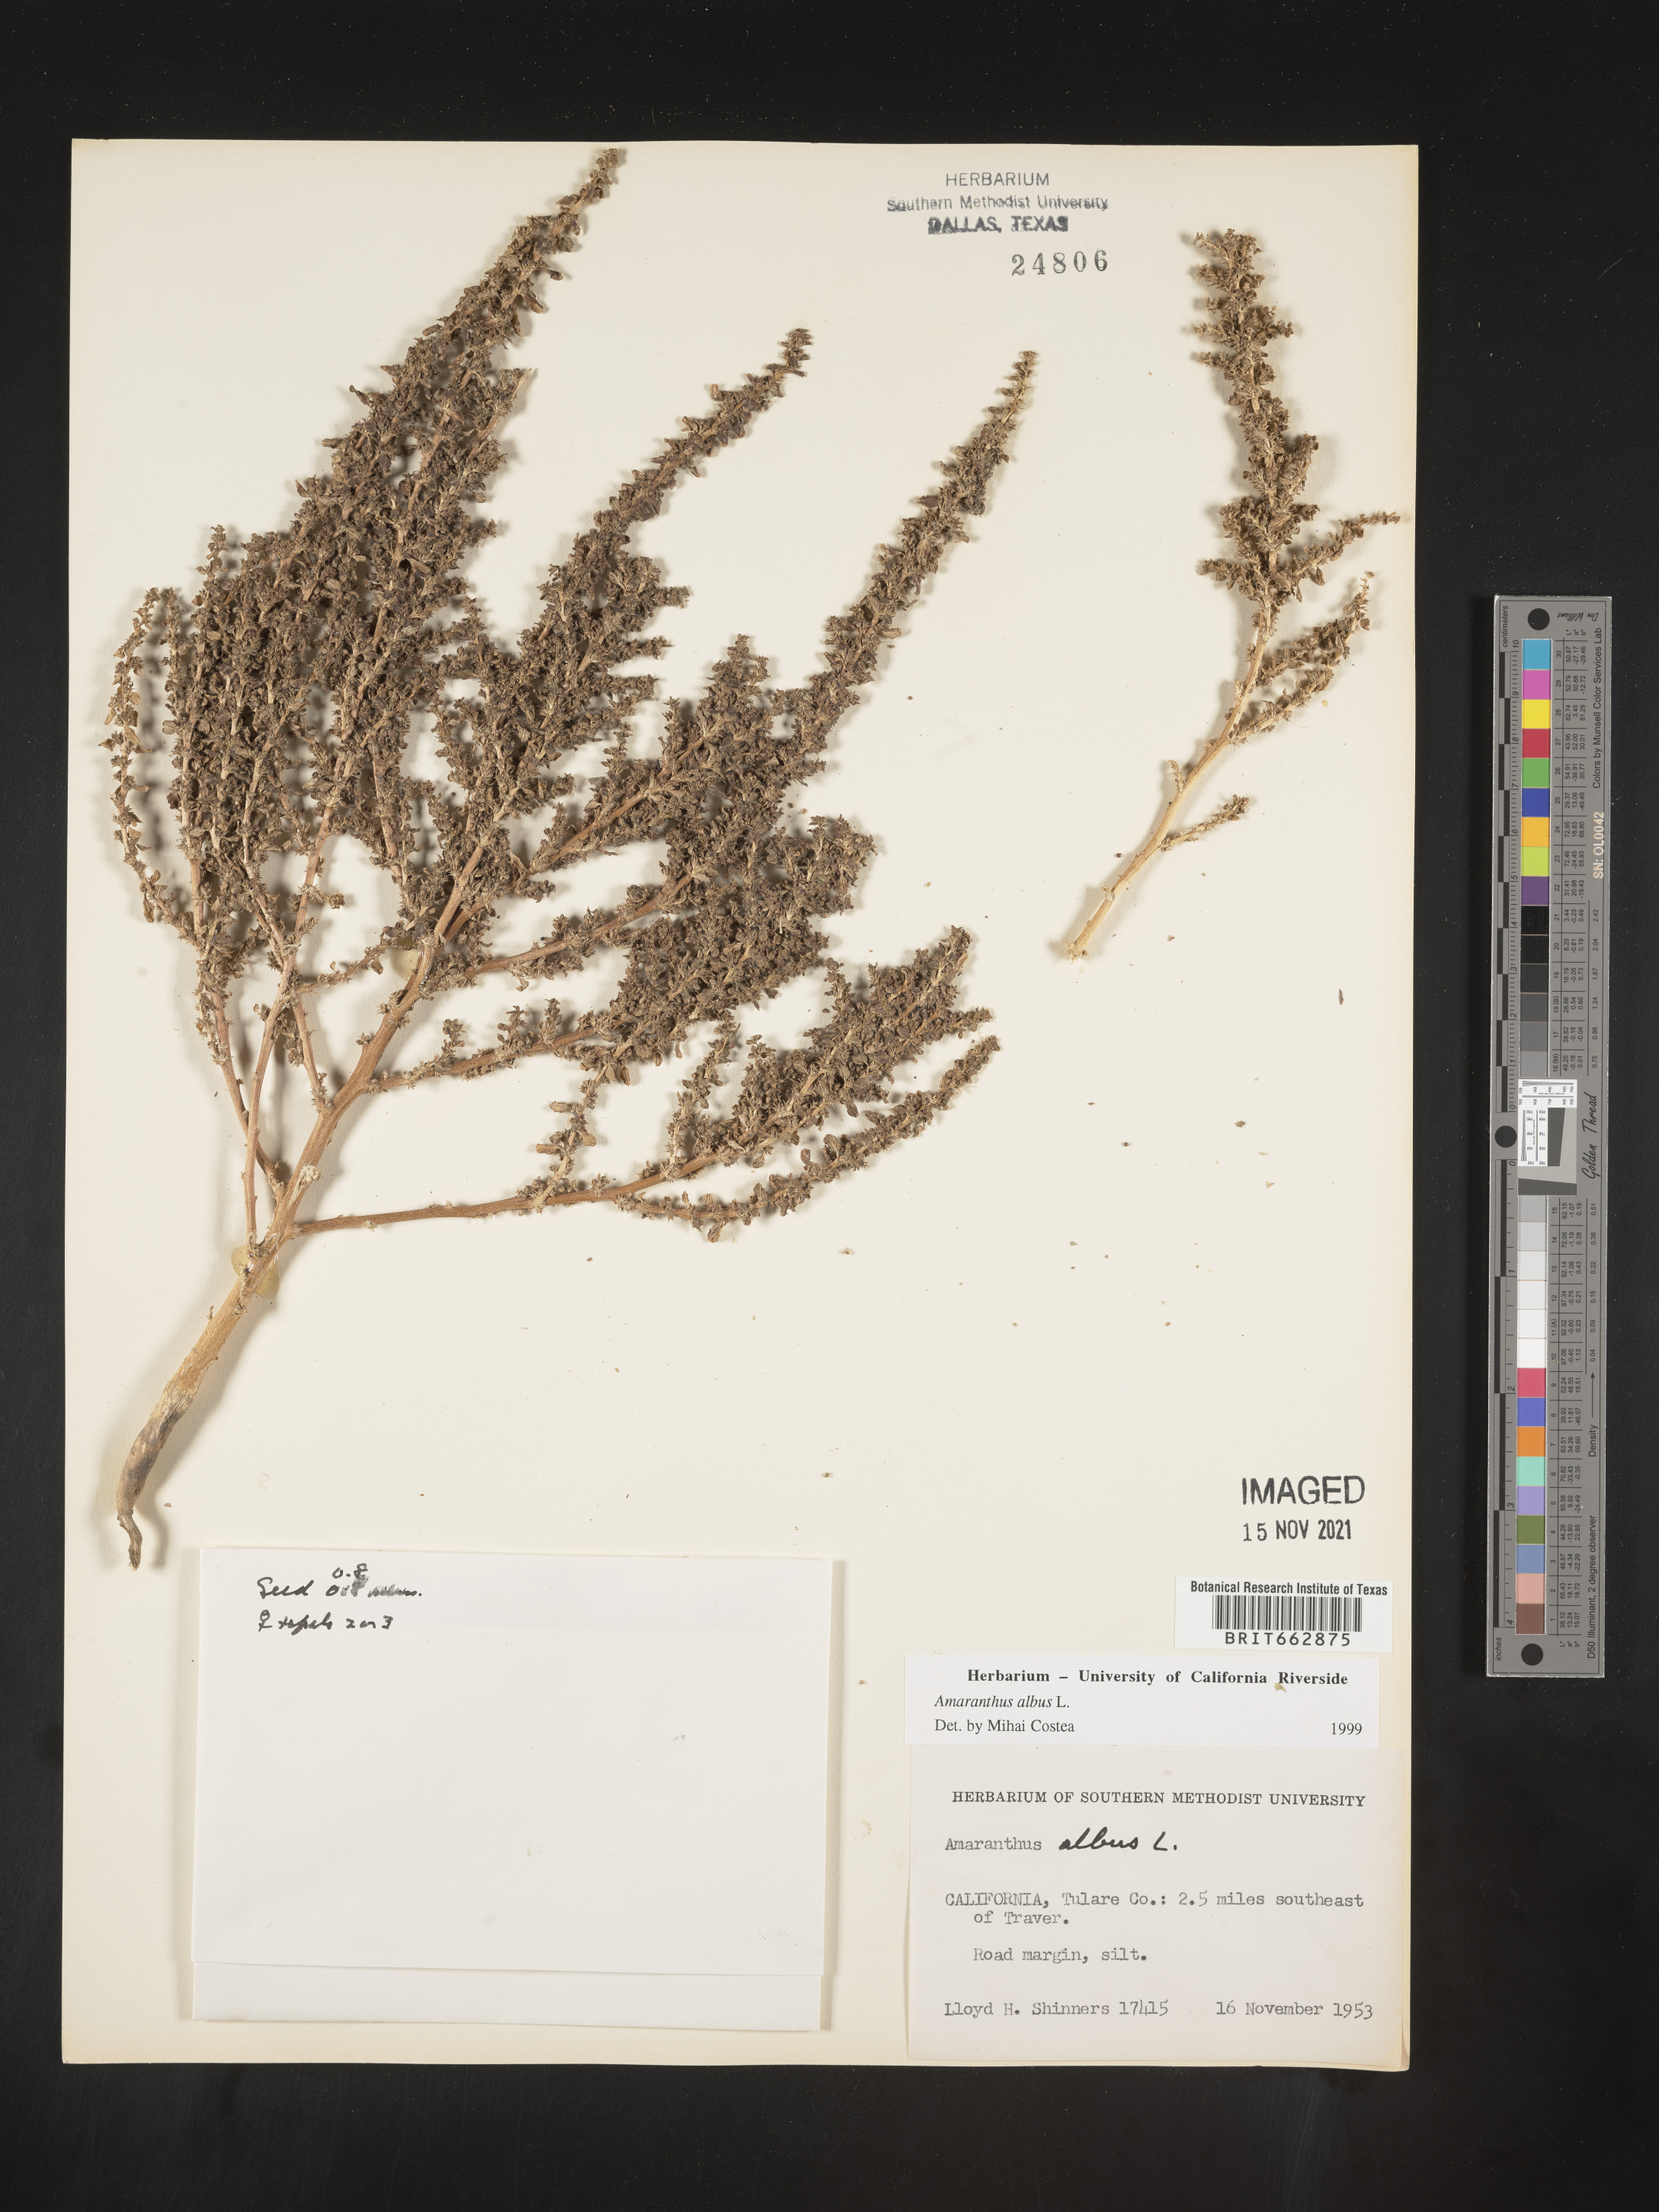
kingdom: Plantae
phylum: Tracheophyta
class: Magnoliopsida
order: Caryophyllales
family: Amaranthaceae
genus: Amaranthus
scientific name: Amaranthus albus
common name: White pigweed
